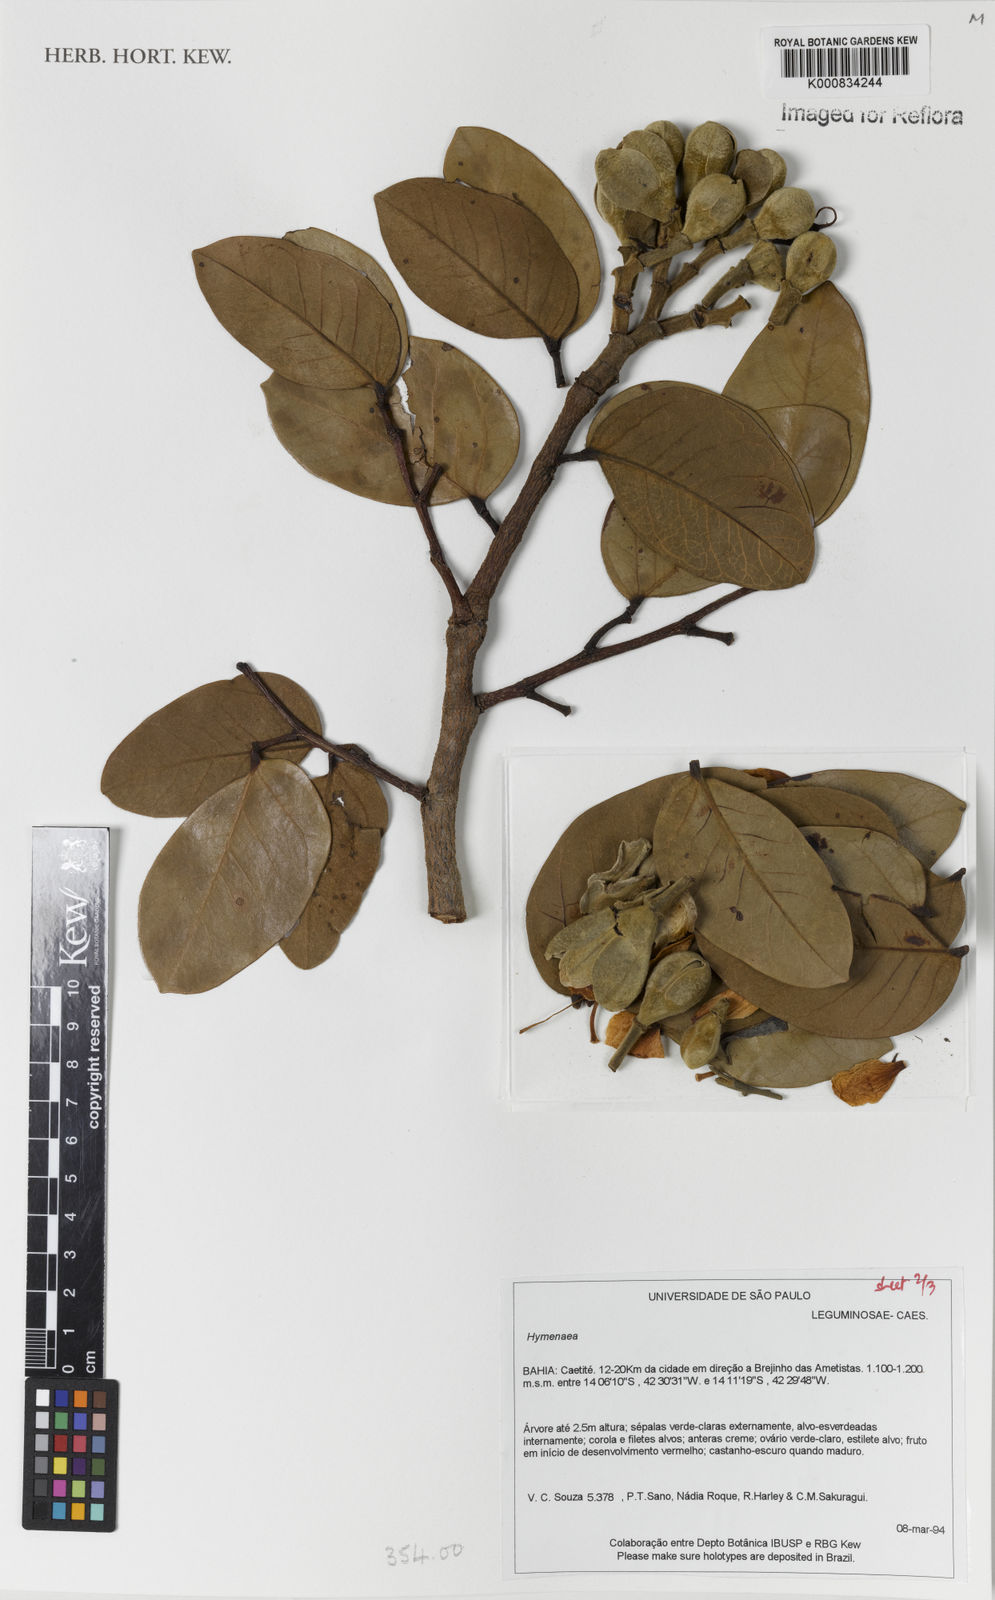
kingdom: Plantae
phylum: Tracheophyta
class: Magnoliopsida
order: Fabales
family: Fabaceae
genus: Hymenaea
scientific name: Hymenaea
